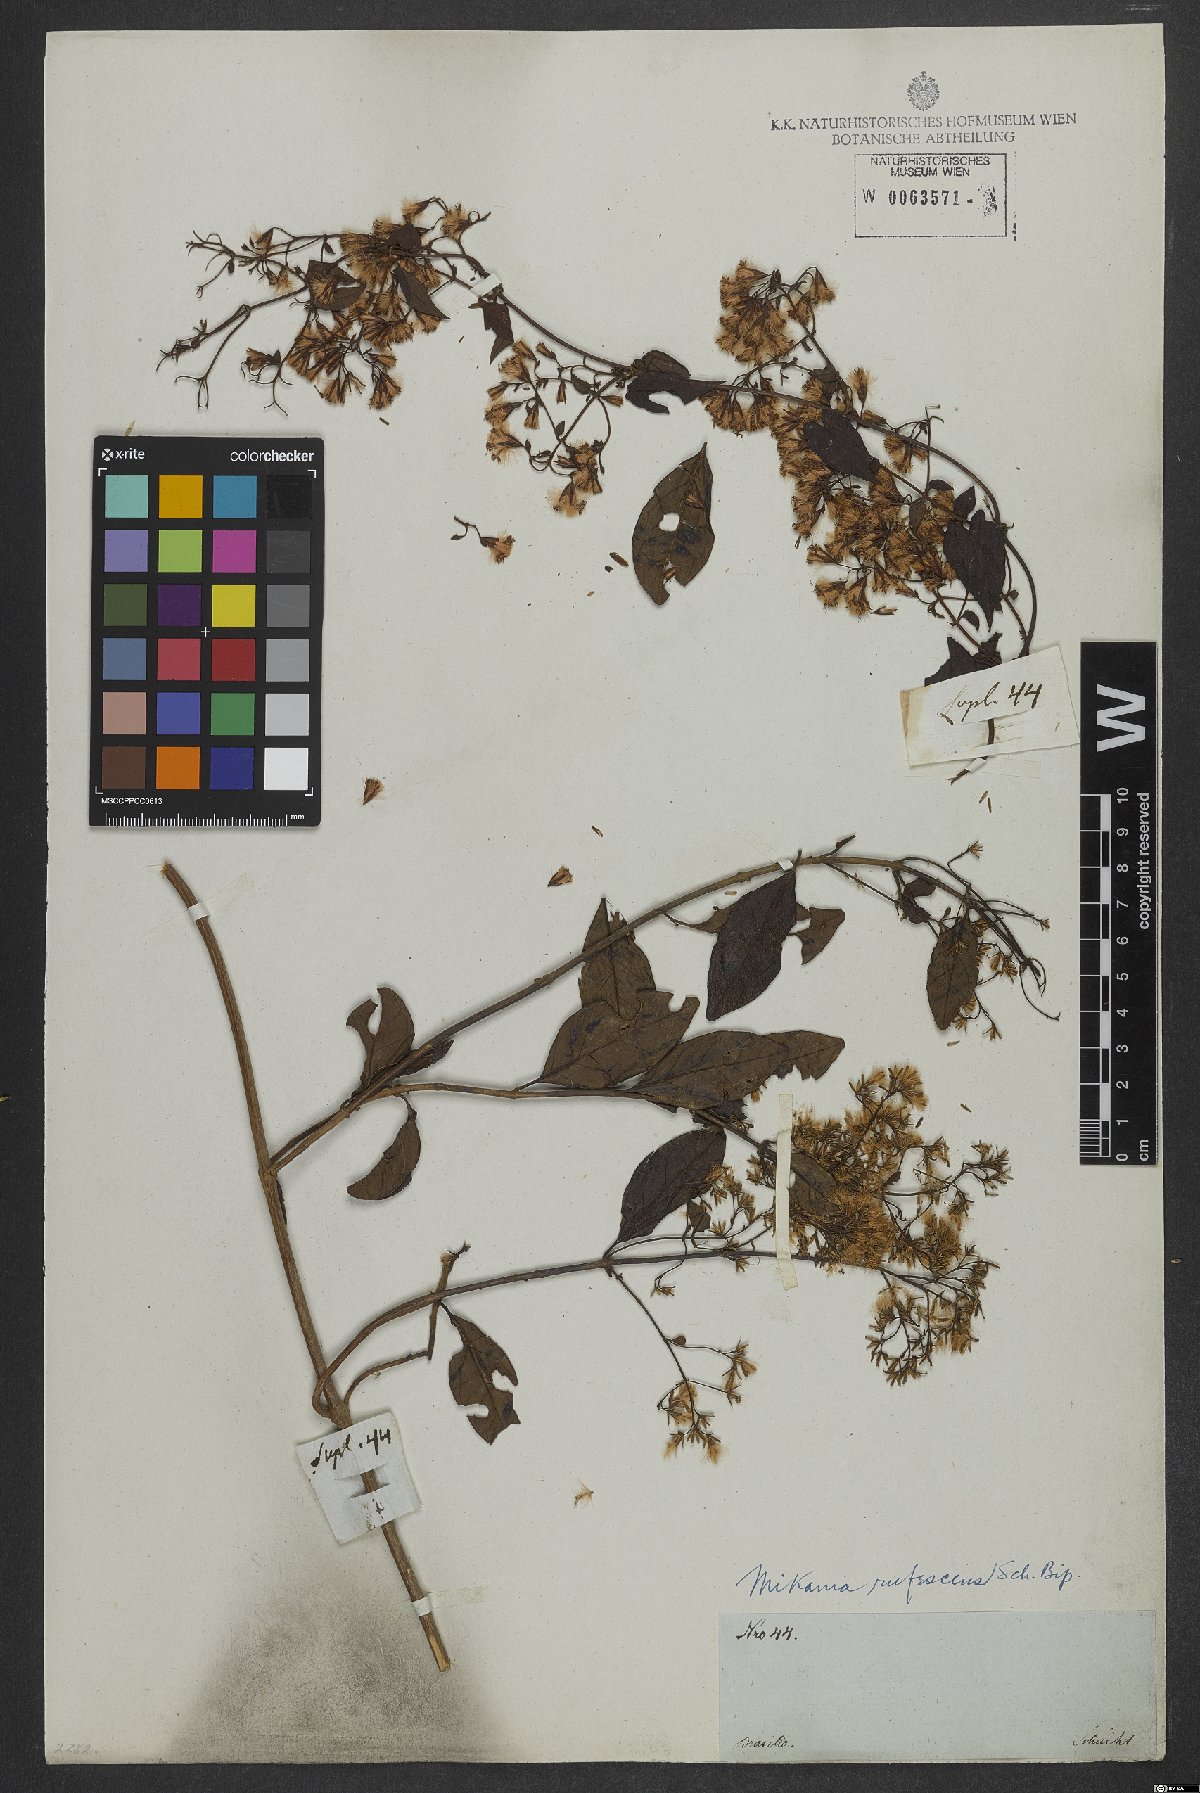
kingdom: Plantae
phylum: Tracheophyta
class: Magnoliopsida
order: Asterales
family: Asteraceae
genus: Mikania
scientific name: Mikania rufescens
